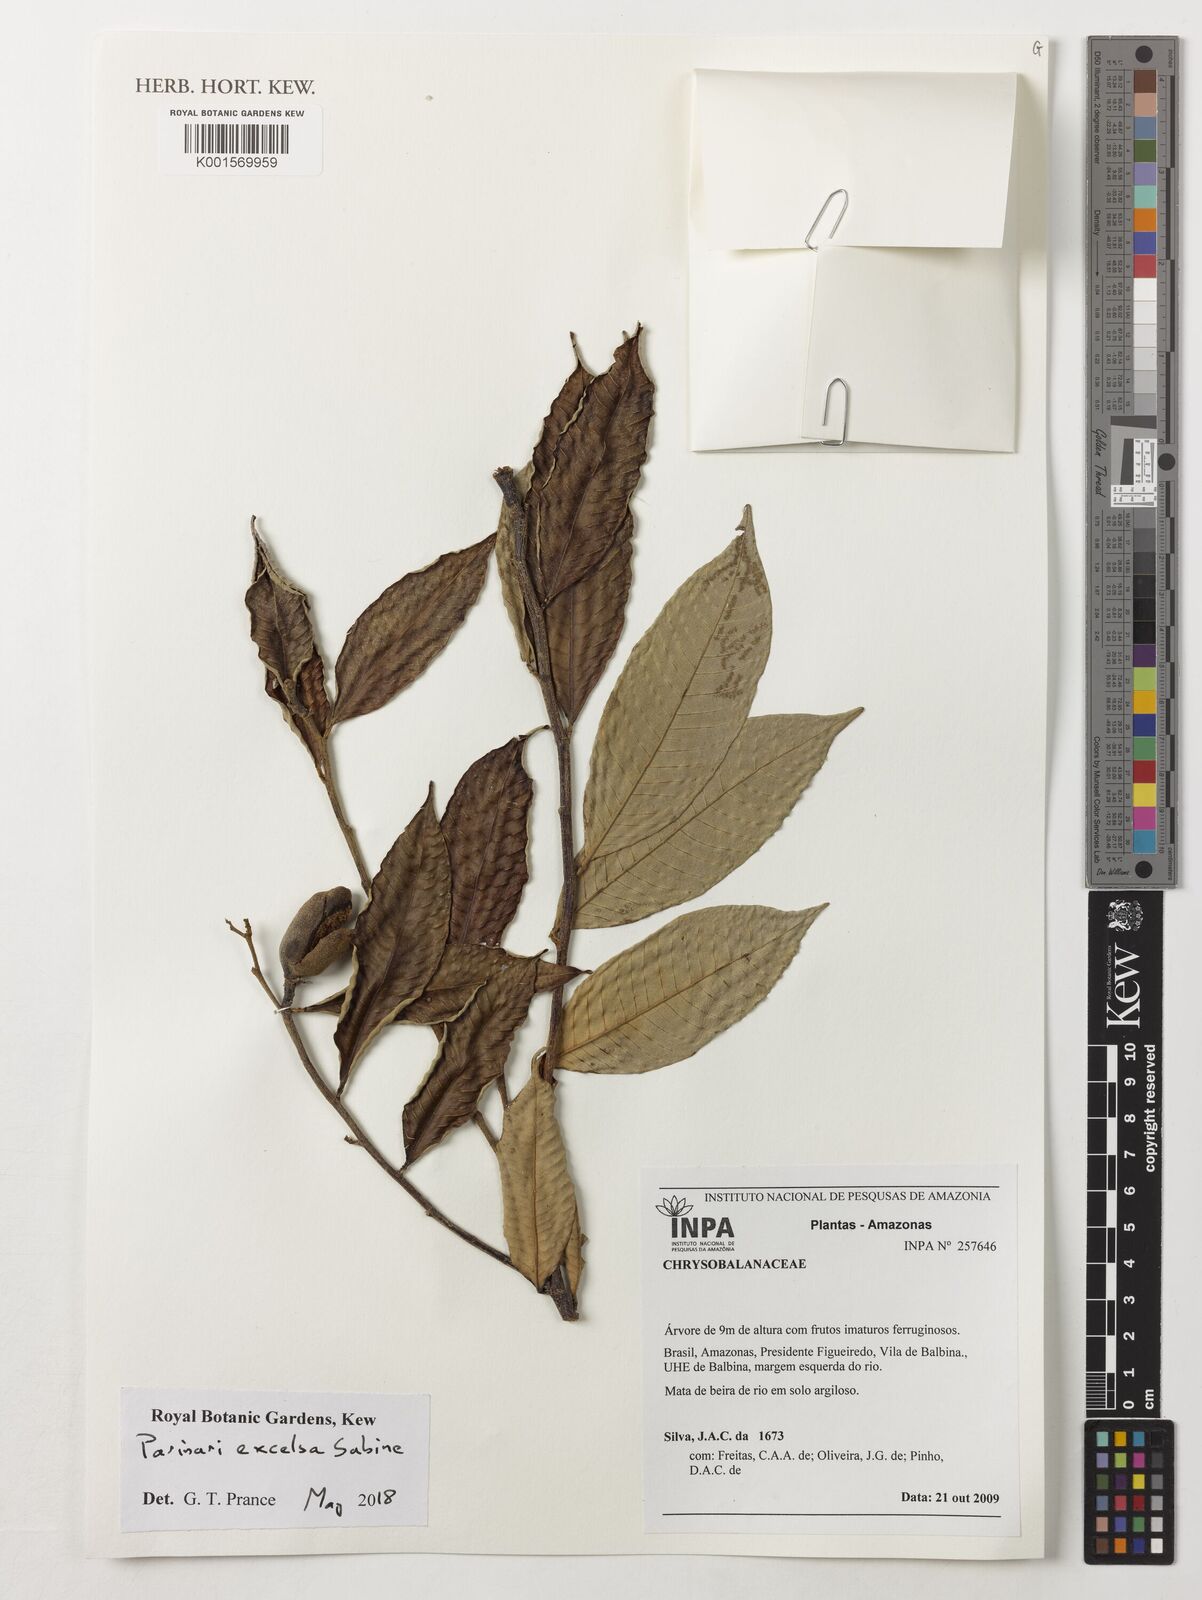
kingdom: Plantae
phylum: Tracheophyta
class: Magnoliopsida
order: Malpighiales
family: Chrysobalanaceae
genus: Parinari
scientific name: Parinari excelsa
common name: Guinea-plum
